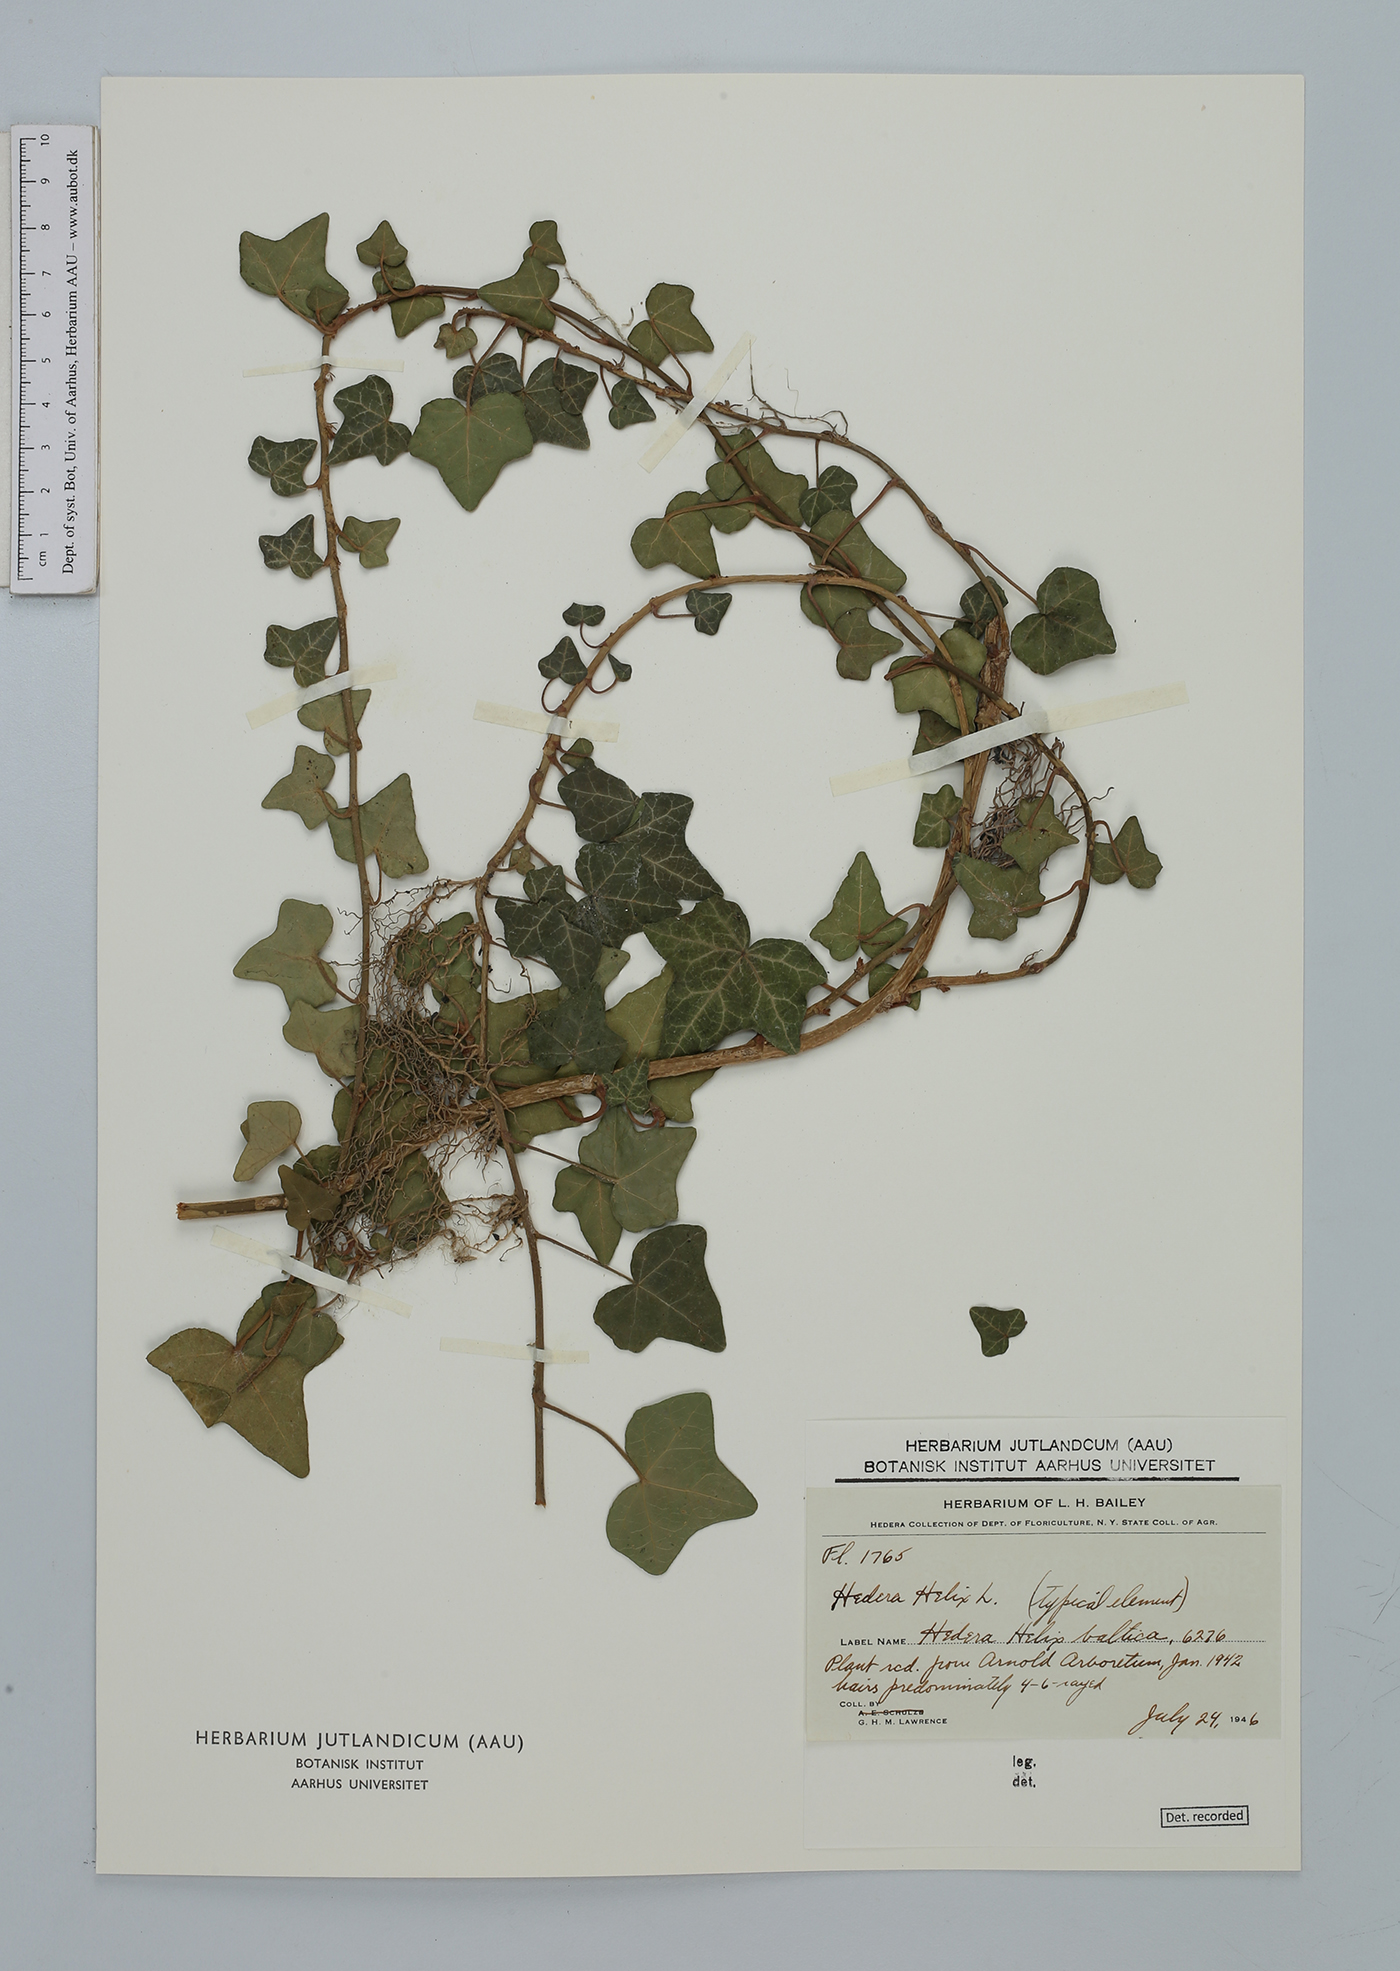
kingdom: Plantae
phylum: Tracheophyta
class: Magnoliopsida
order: Apiales
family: Araliaceae
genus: Hedera
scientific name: Hedera helix
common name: Ivy
